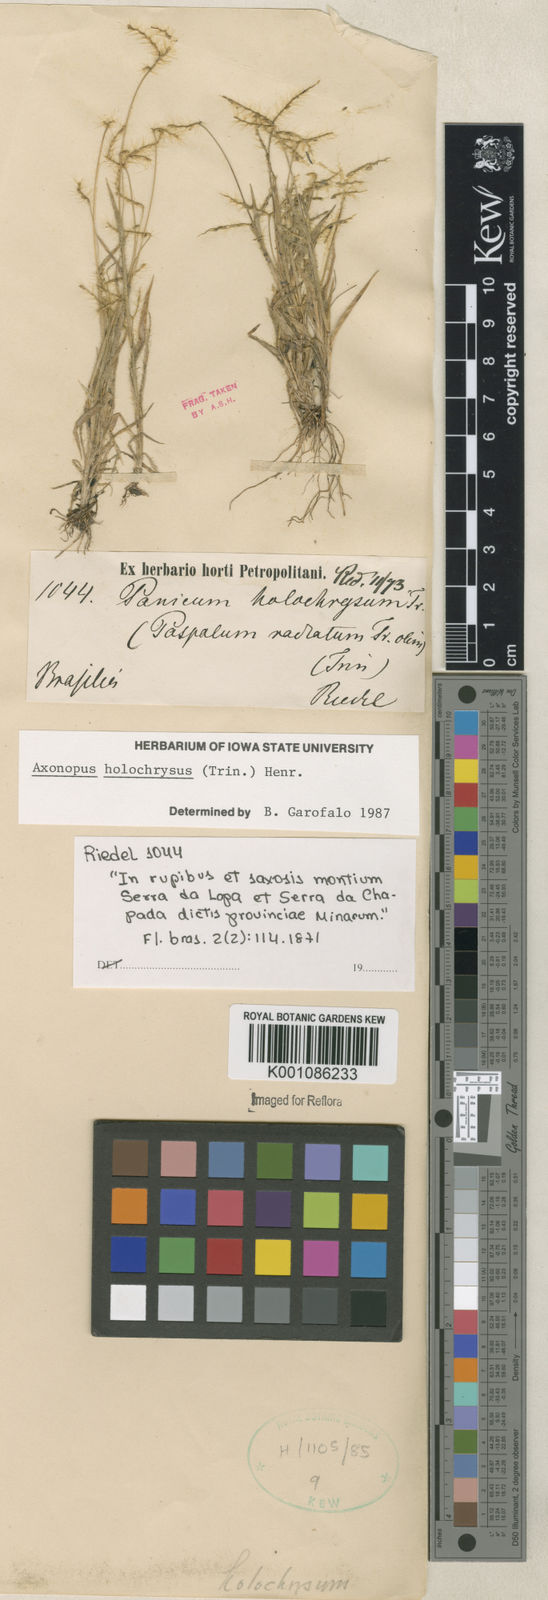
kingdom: Plantae
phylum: Tracheophyta
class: Liliopsida
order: Poales
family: Poaceae
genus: Axonopus
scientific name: Axonopus aureus
